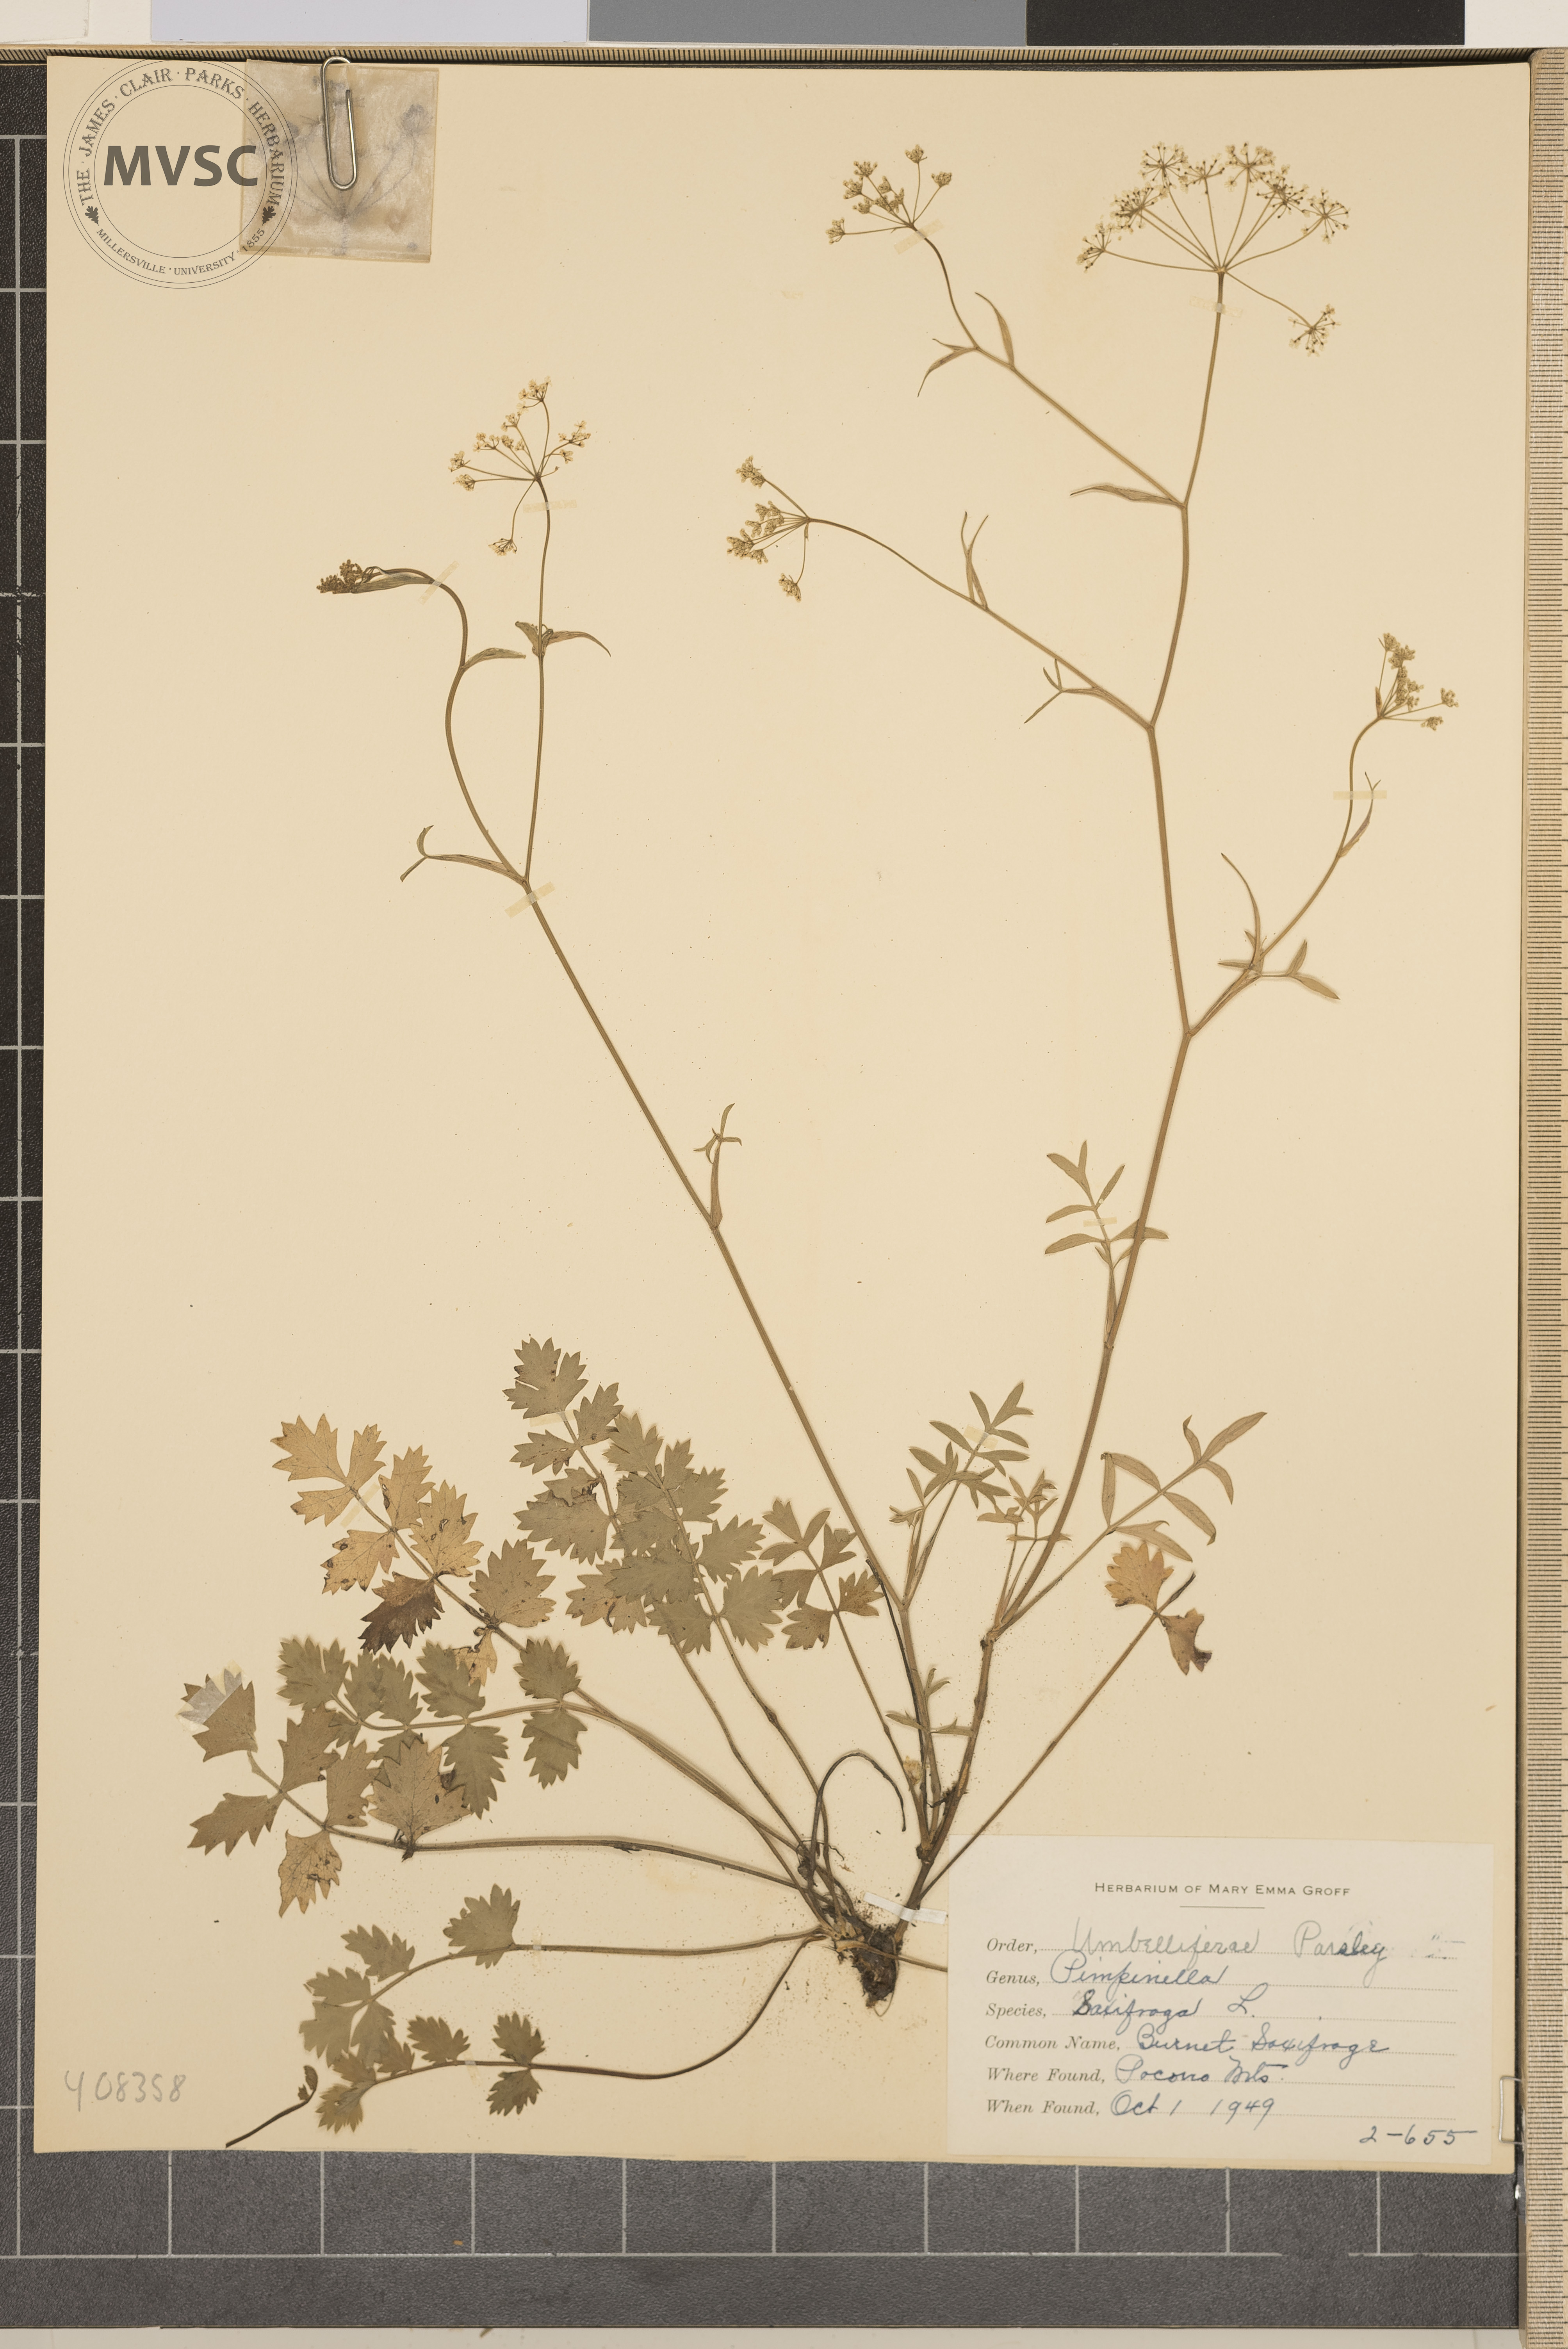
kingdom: Plantae
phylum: Tracheophyta
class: Magnoliopsida
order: Apiales
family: Apiaceae
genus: Pimpinella
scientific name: Pimpinella saxifraga
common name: burnet saxifrage
